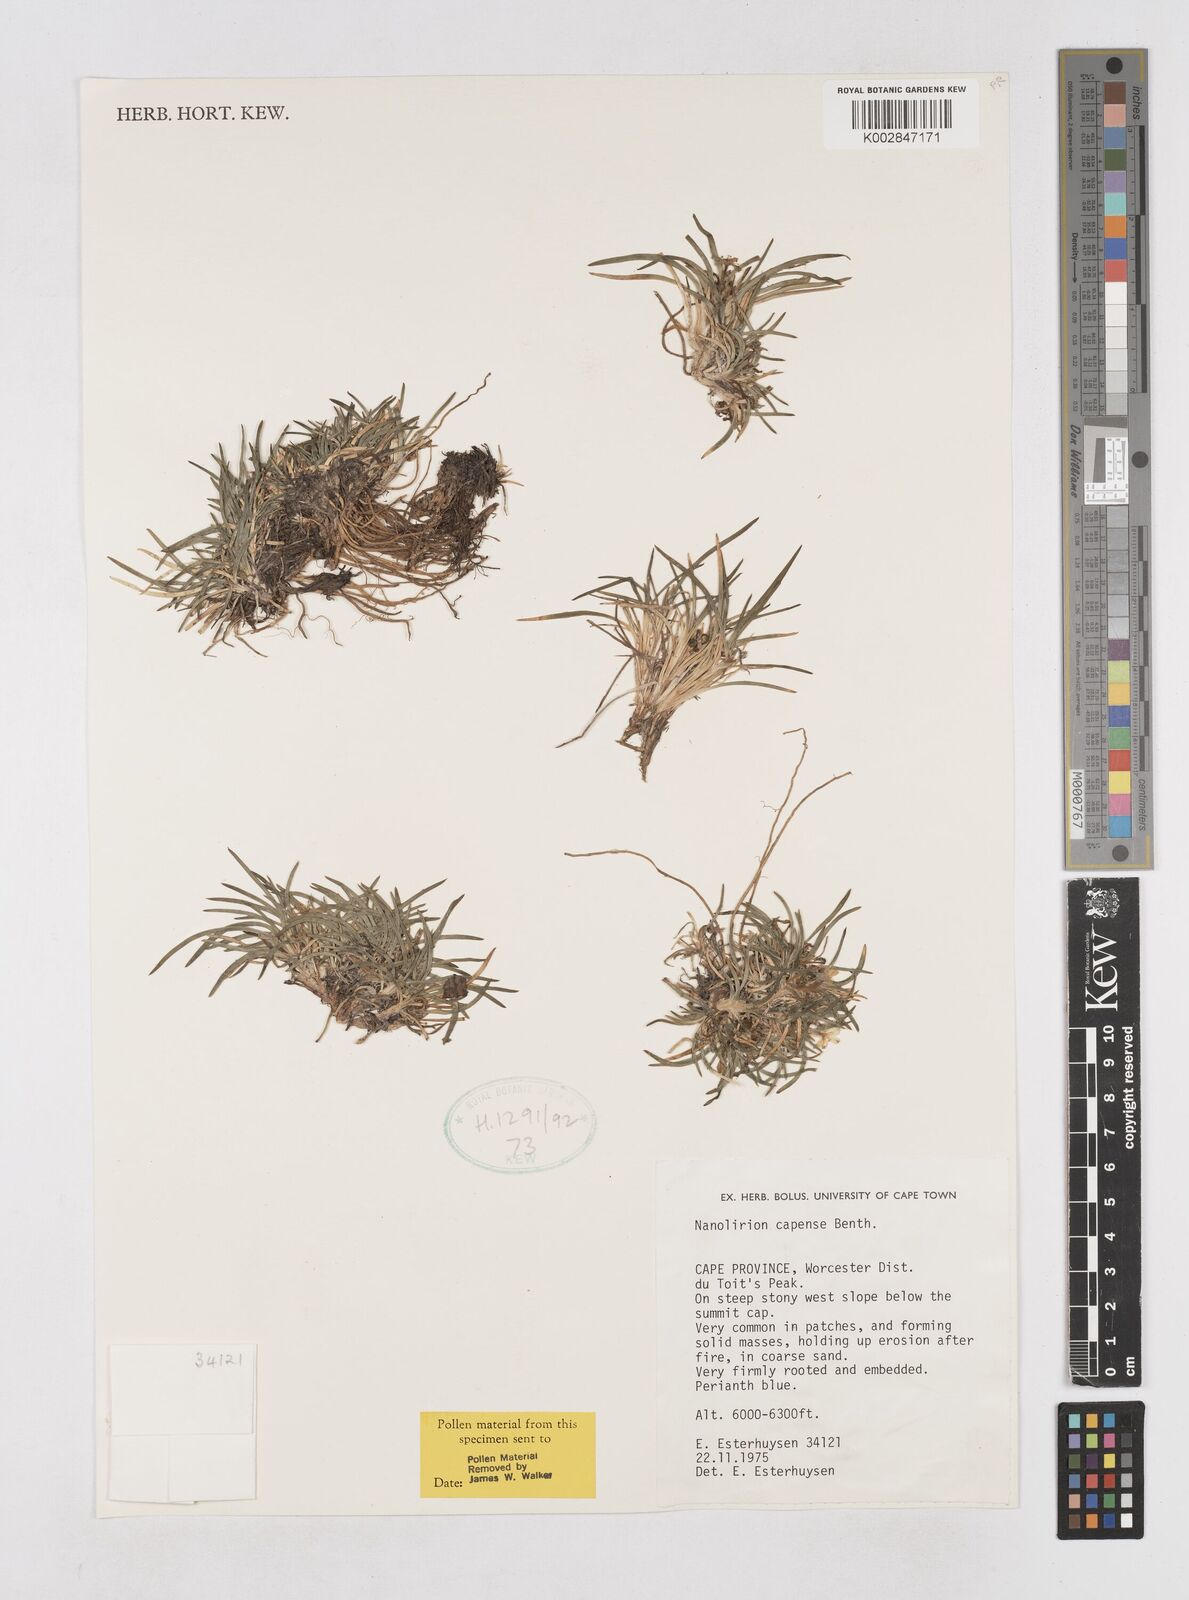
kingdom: Plantae
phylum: Tracheophyta
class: Liliopsida
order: Asparagales
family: Asphodelaceae
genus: Caesia
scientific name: Caesia capensis
